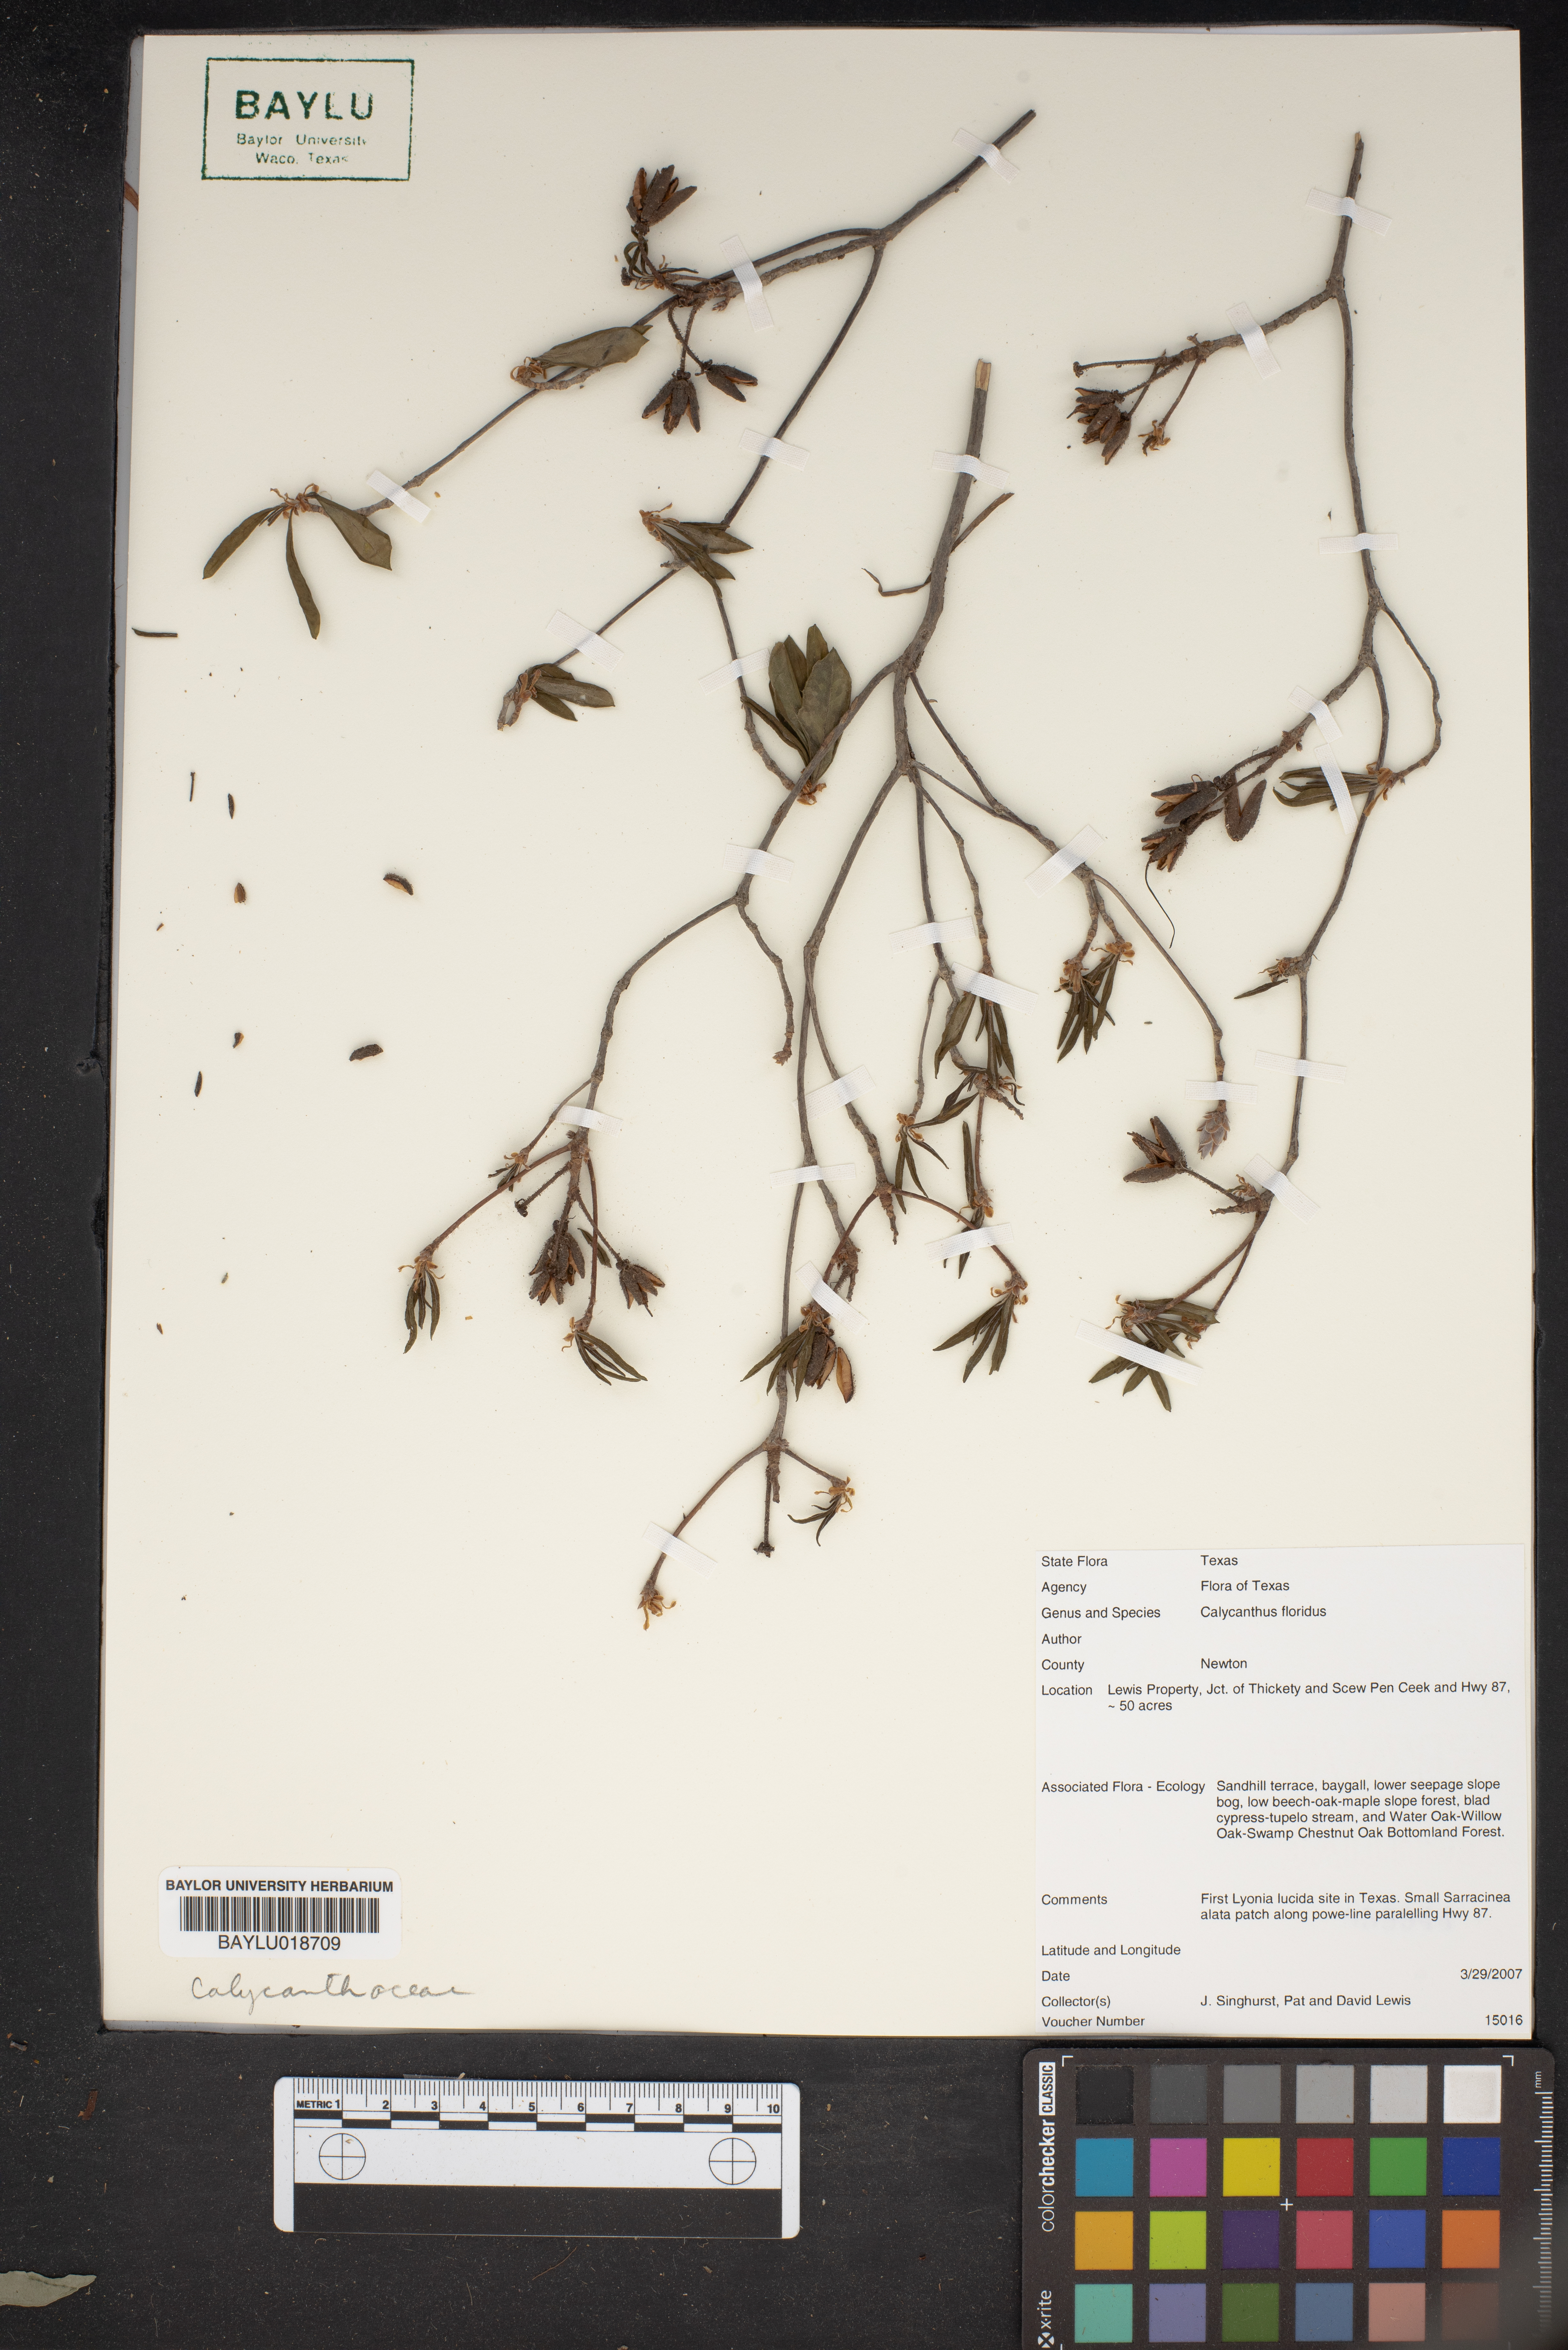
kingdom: Plantae
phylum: Tracheophyta
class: Magnoliopsida
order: Laurales
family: Calycanthaceae
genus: Calycanthus
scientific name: Calycanthus floridus
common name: Carolina-allspice
